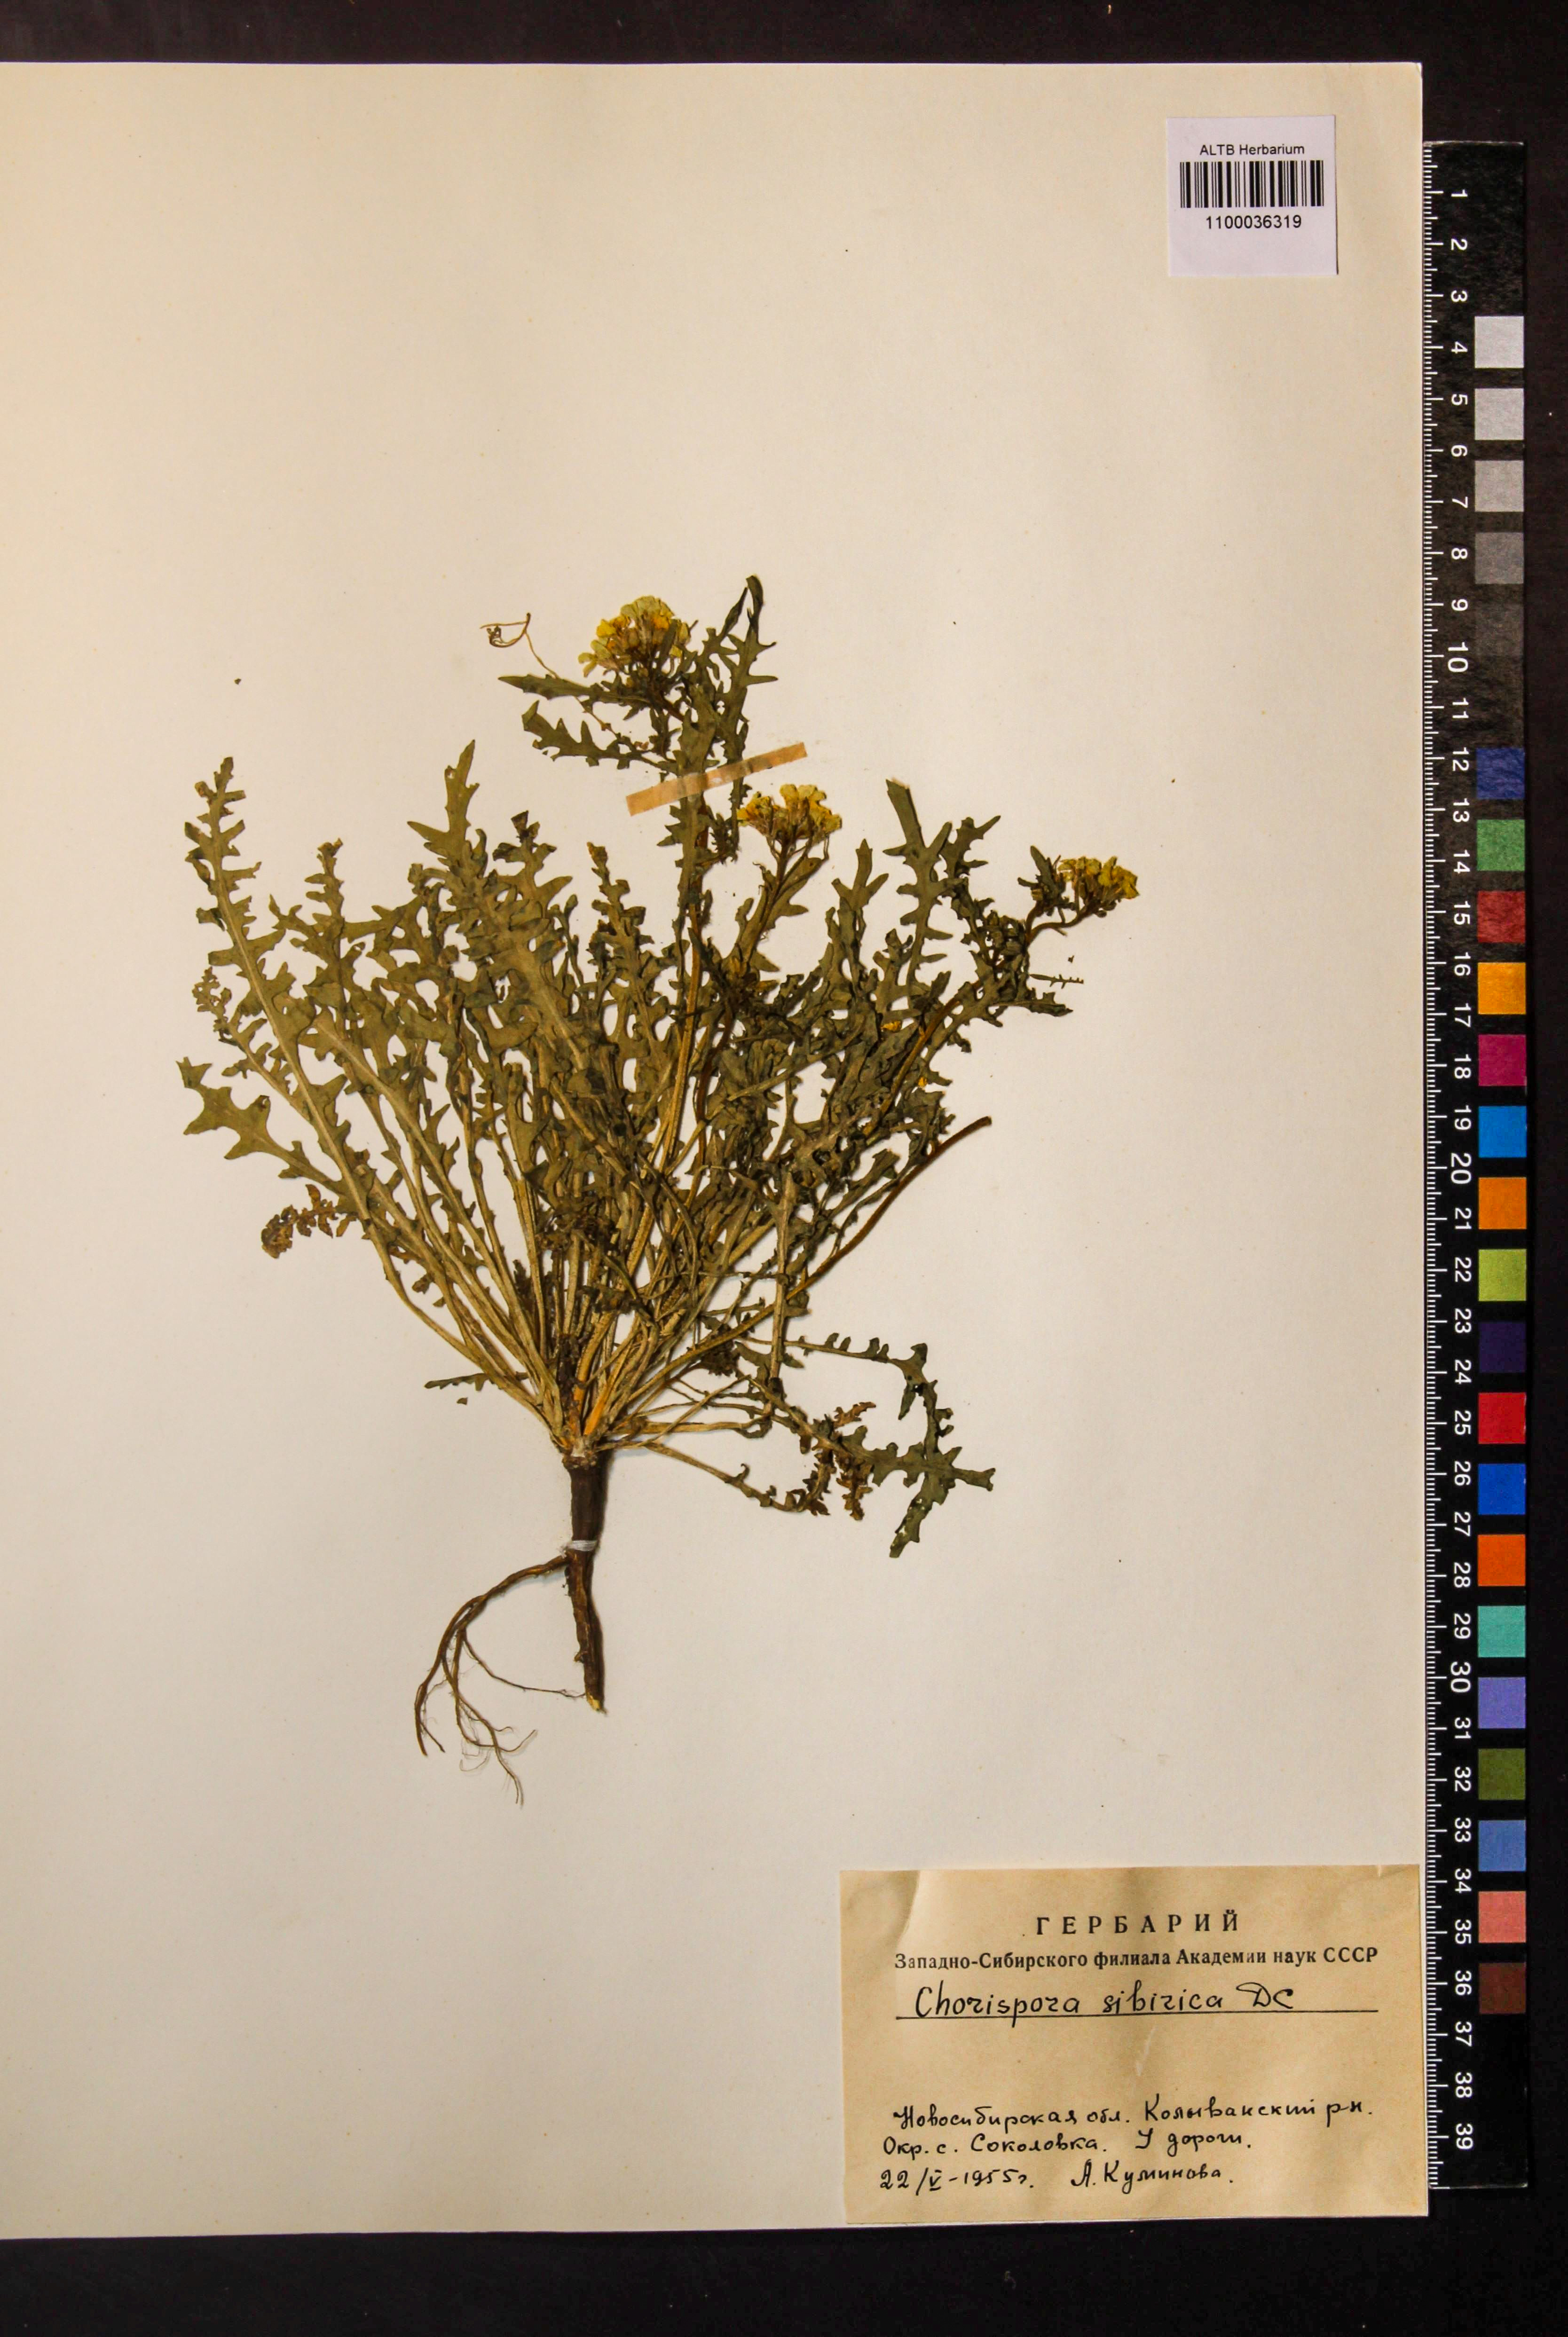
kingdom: Plantae
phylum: Tracheophyta
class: Magnoliopsida
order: Brassicales
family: Brassicaceae
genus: Chorispora
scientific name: Chorispora sibirica
